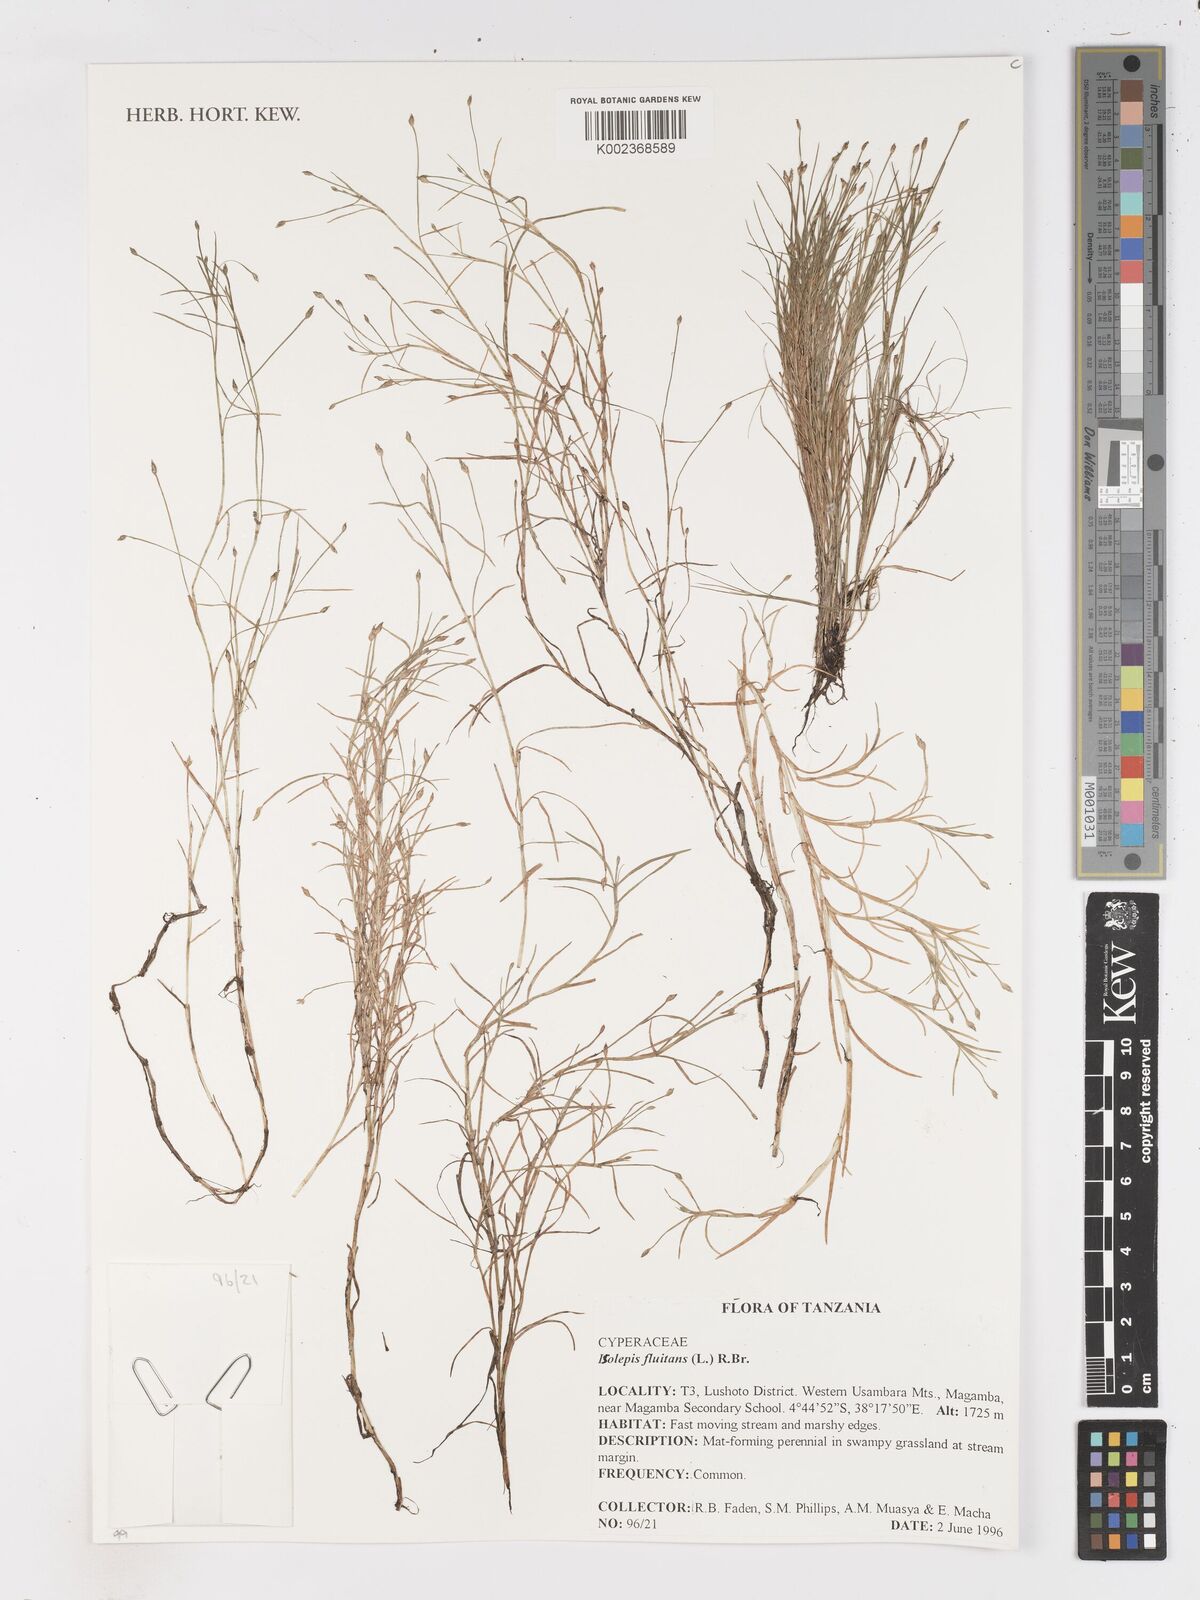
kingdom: Plantae
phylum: Tracheophyta
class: Liliopsida
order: Poales
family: Cyperaceae
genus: Isolepis
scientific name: Isolepis fluitans
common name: Floating club-rush
